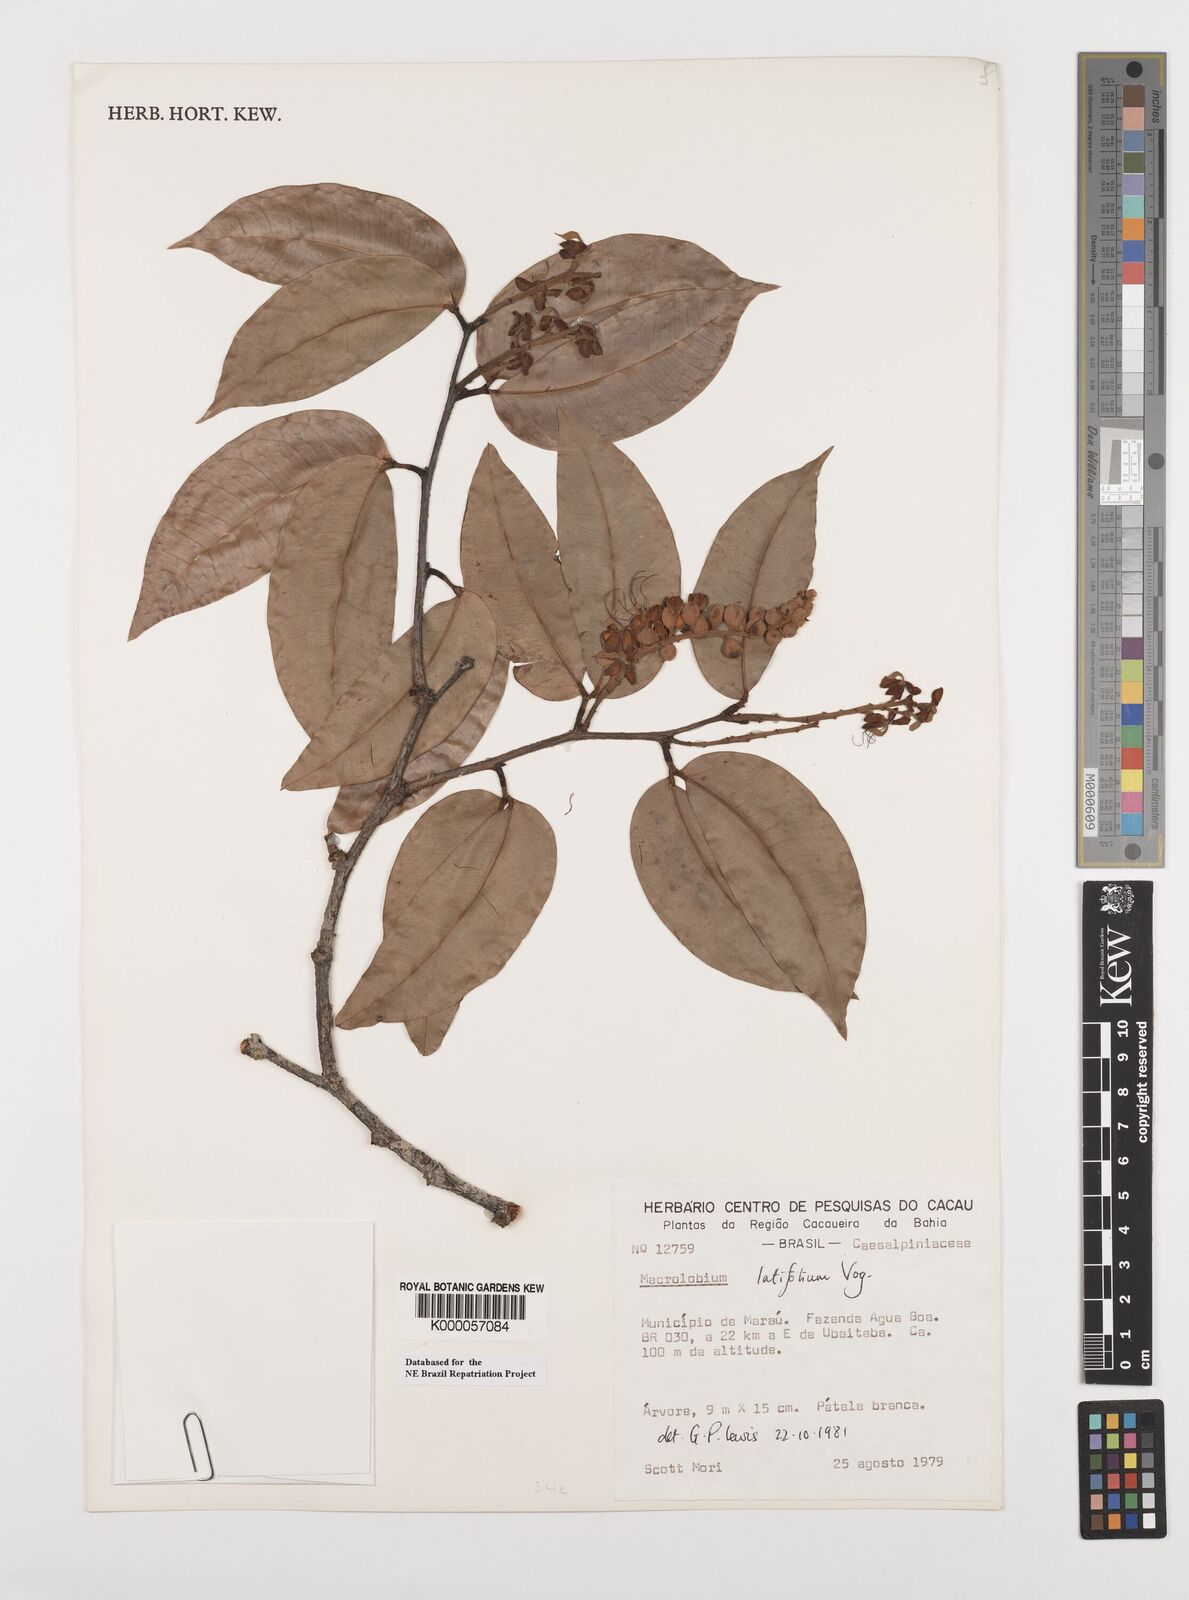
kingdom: Plantae
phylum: Tracheophyta
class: Magnoliopsida
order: Fabales
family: Fabaceae
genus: Macrolobium
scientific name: Macrolobium latifolium
